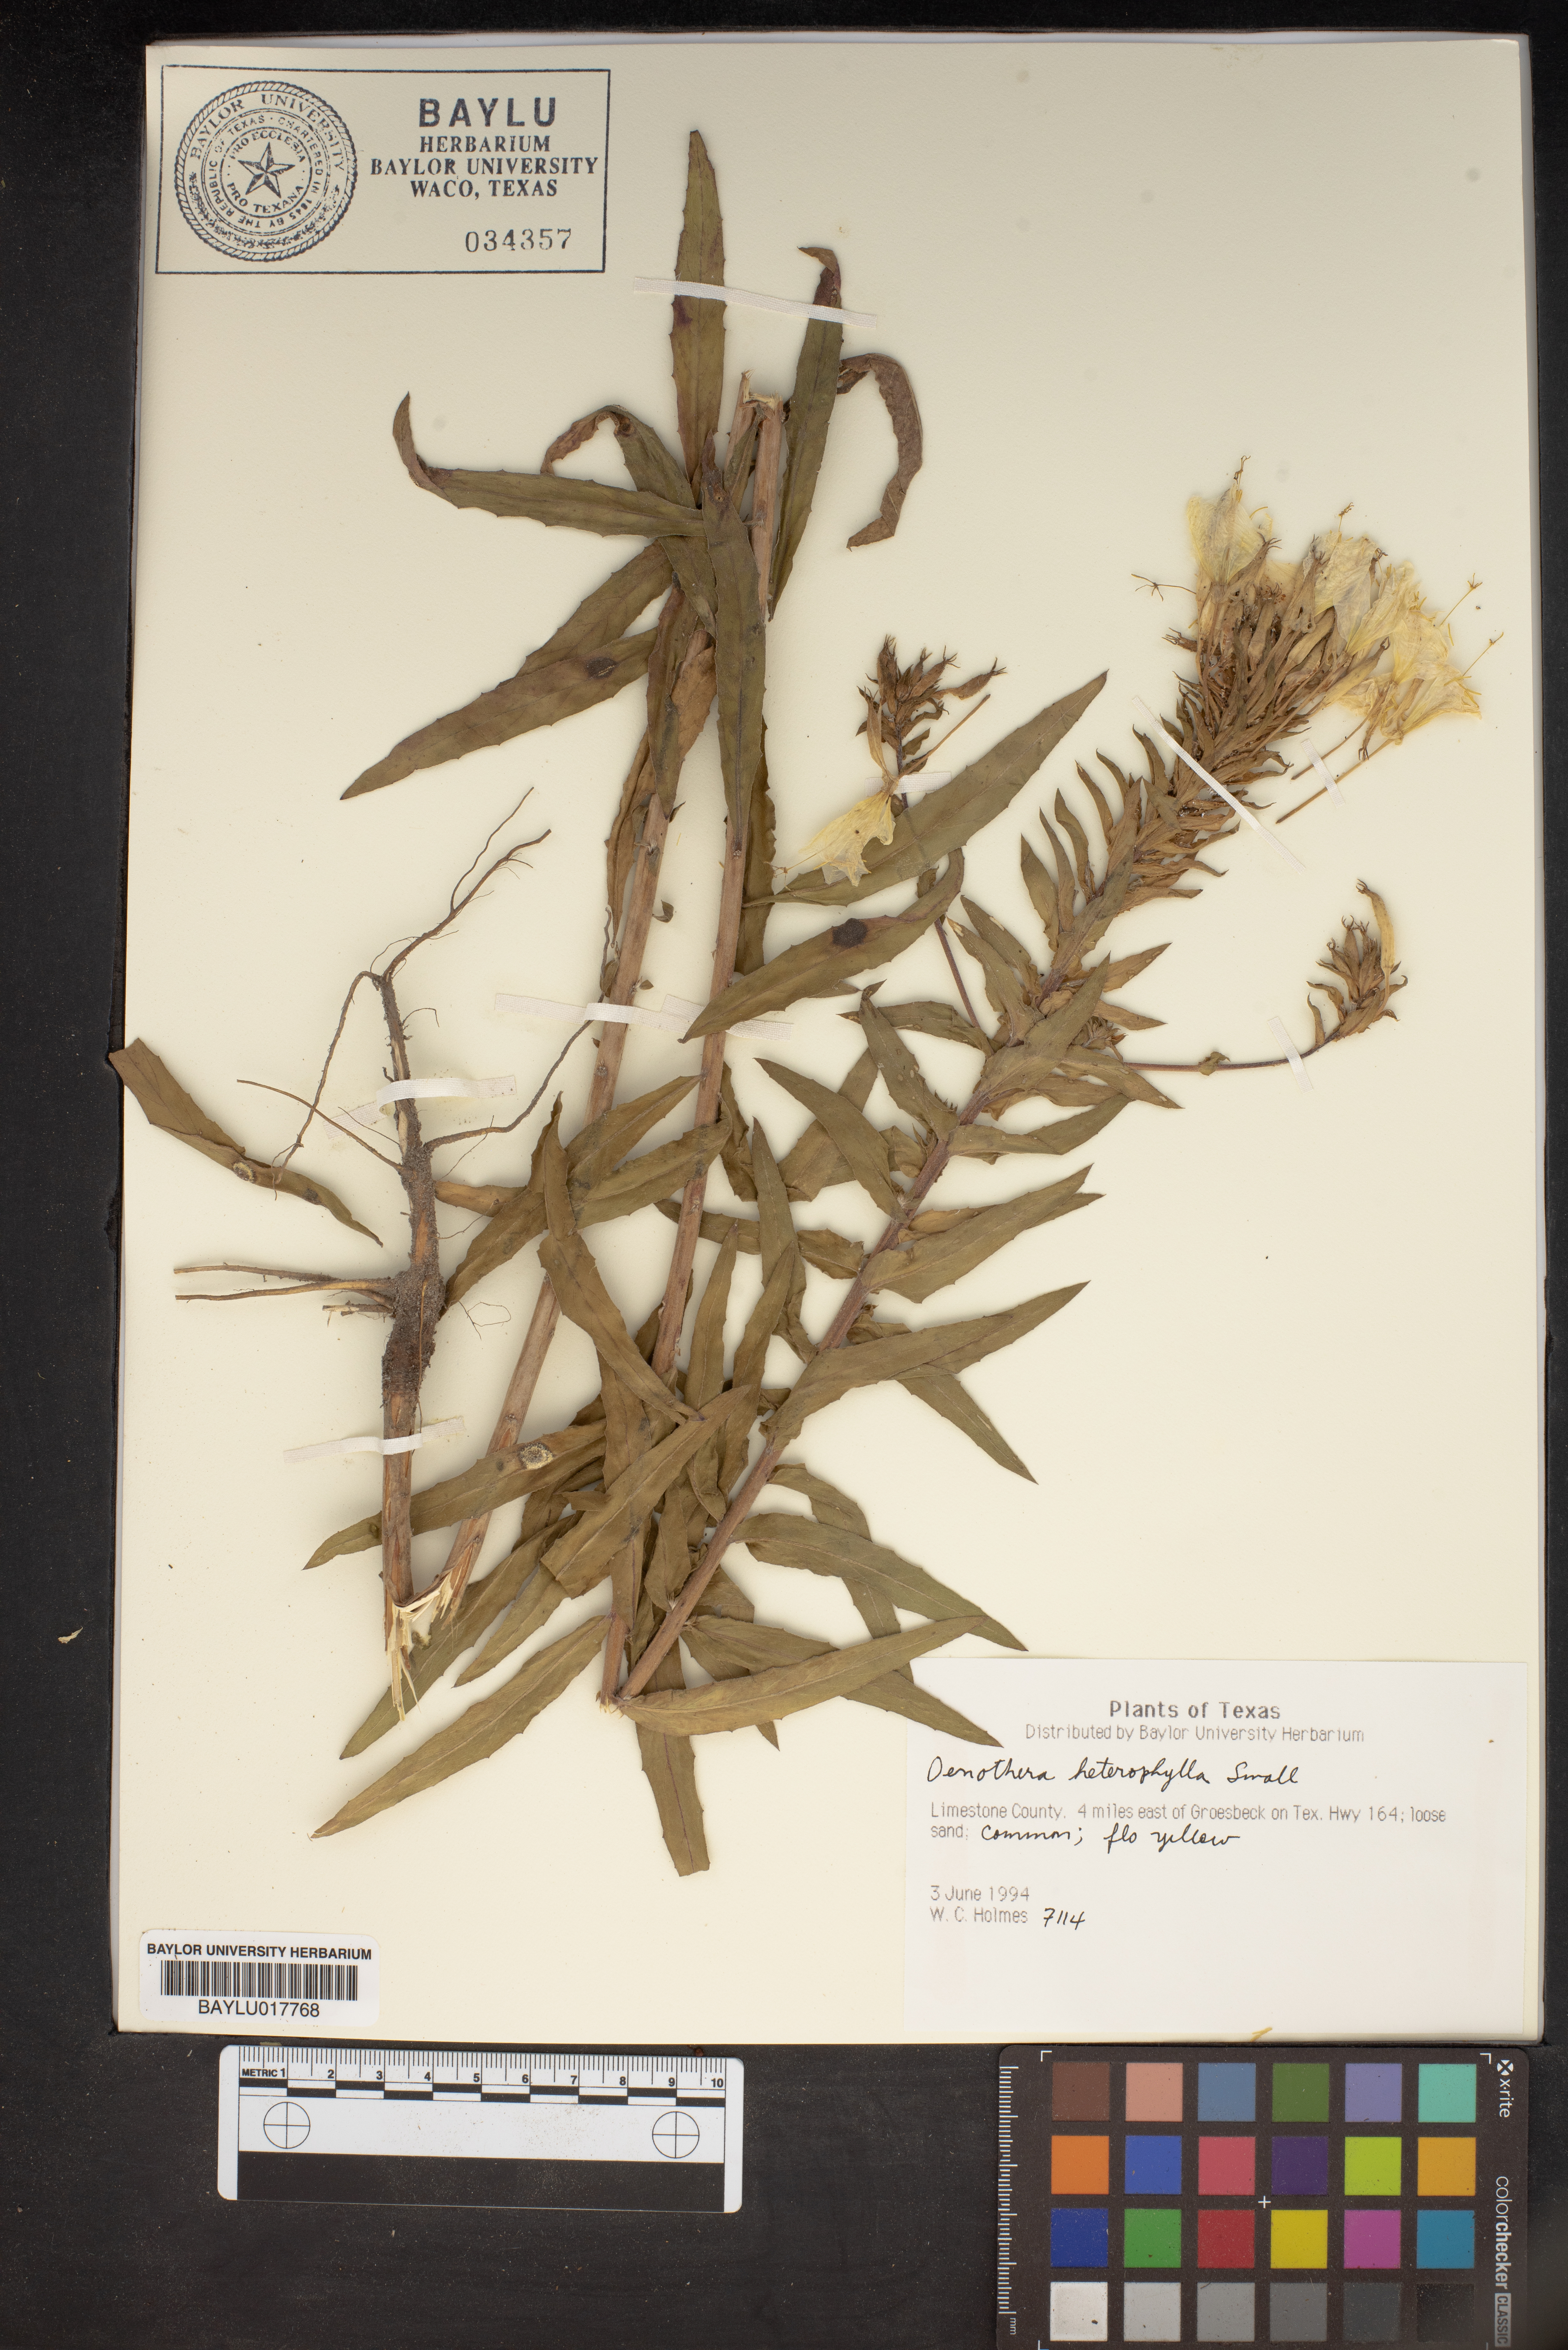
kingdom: Plantae
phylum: Tracheophyta
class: Magnoliopsida
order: Myrtales
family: Onagraceae
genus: Camissonia
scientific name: Camissonia dentata
